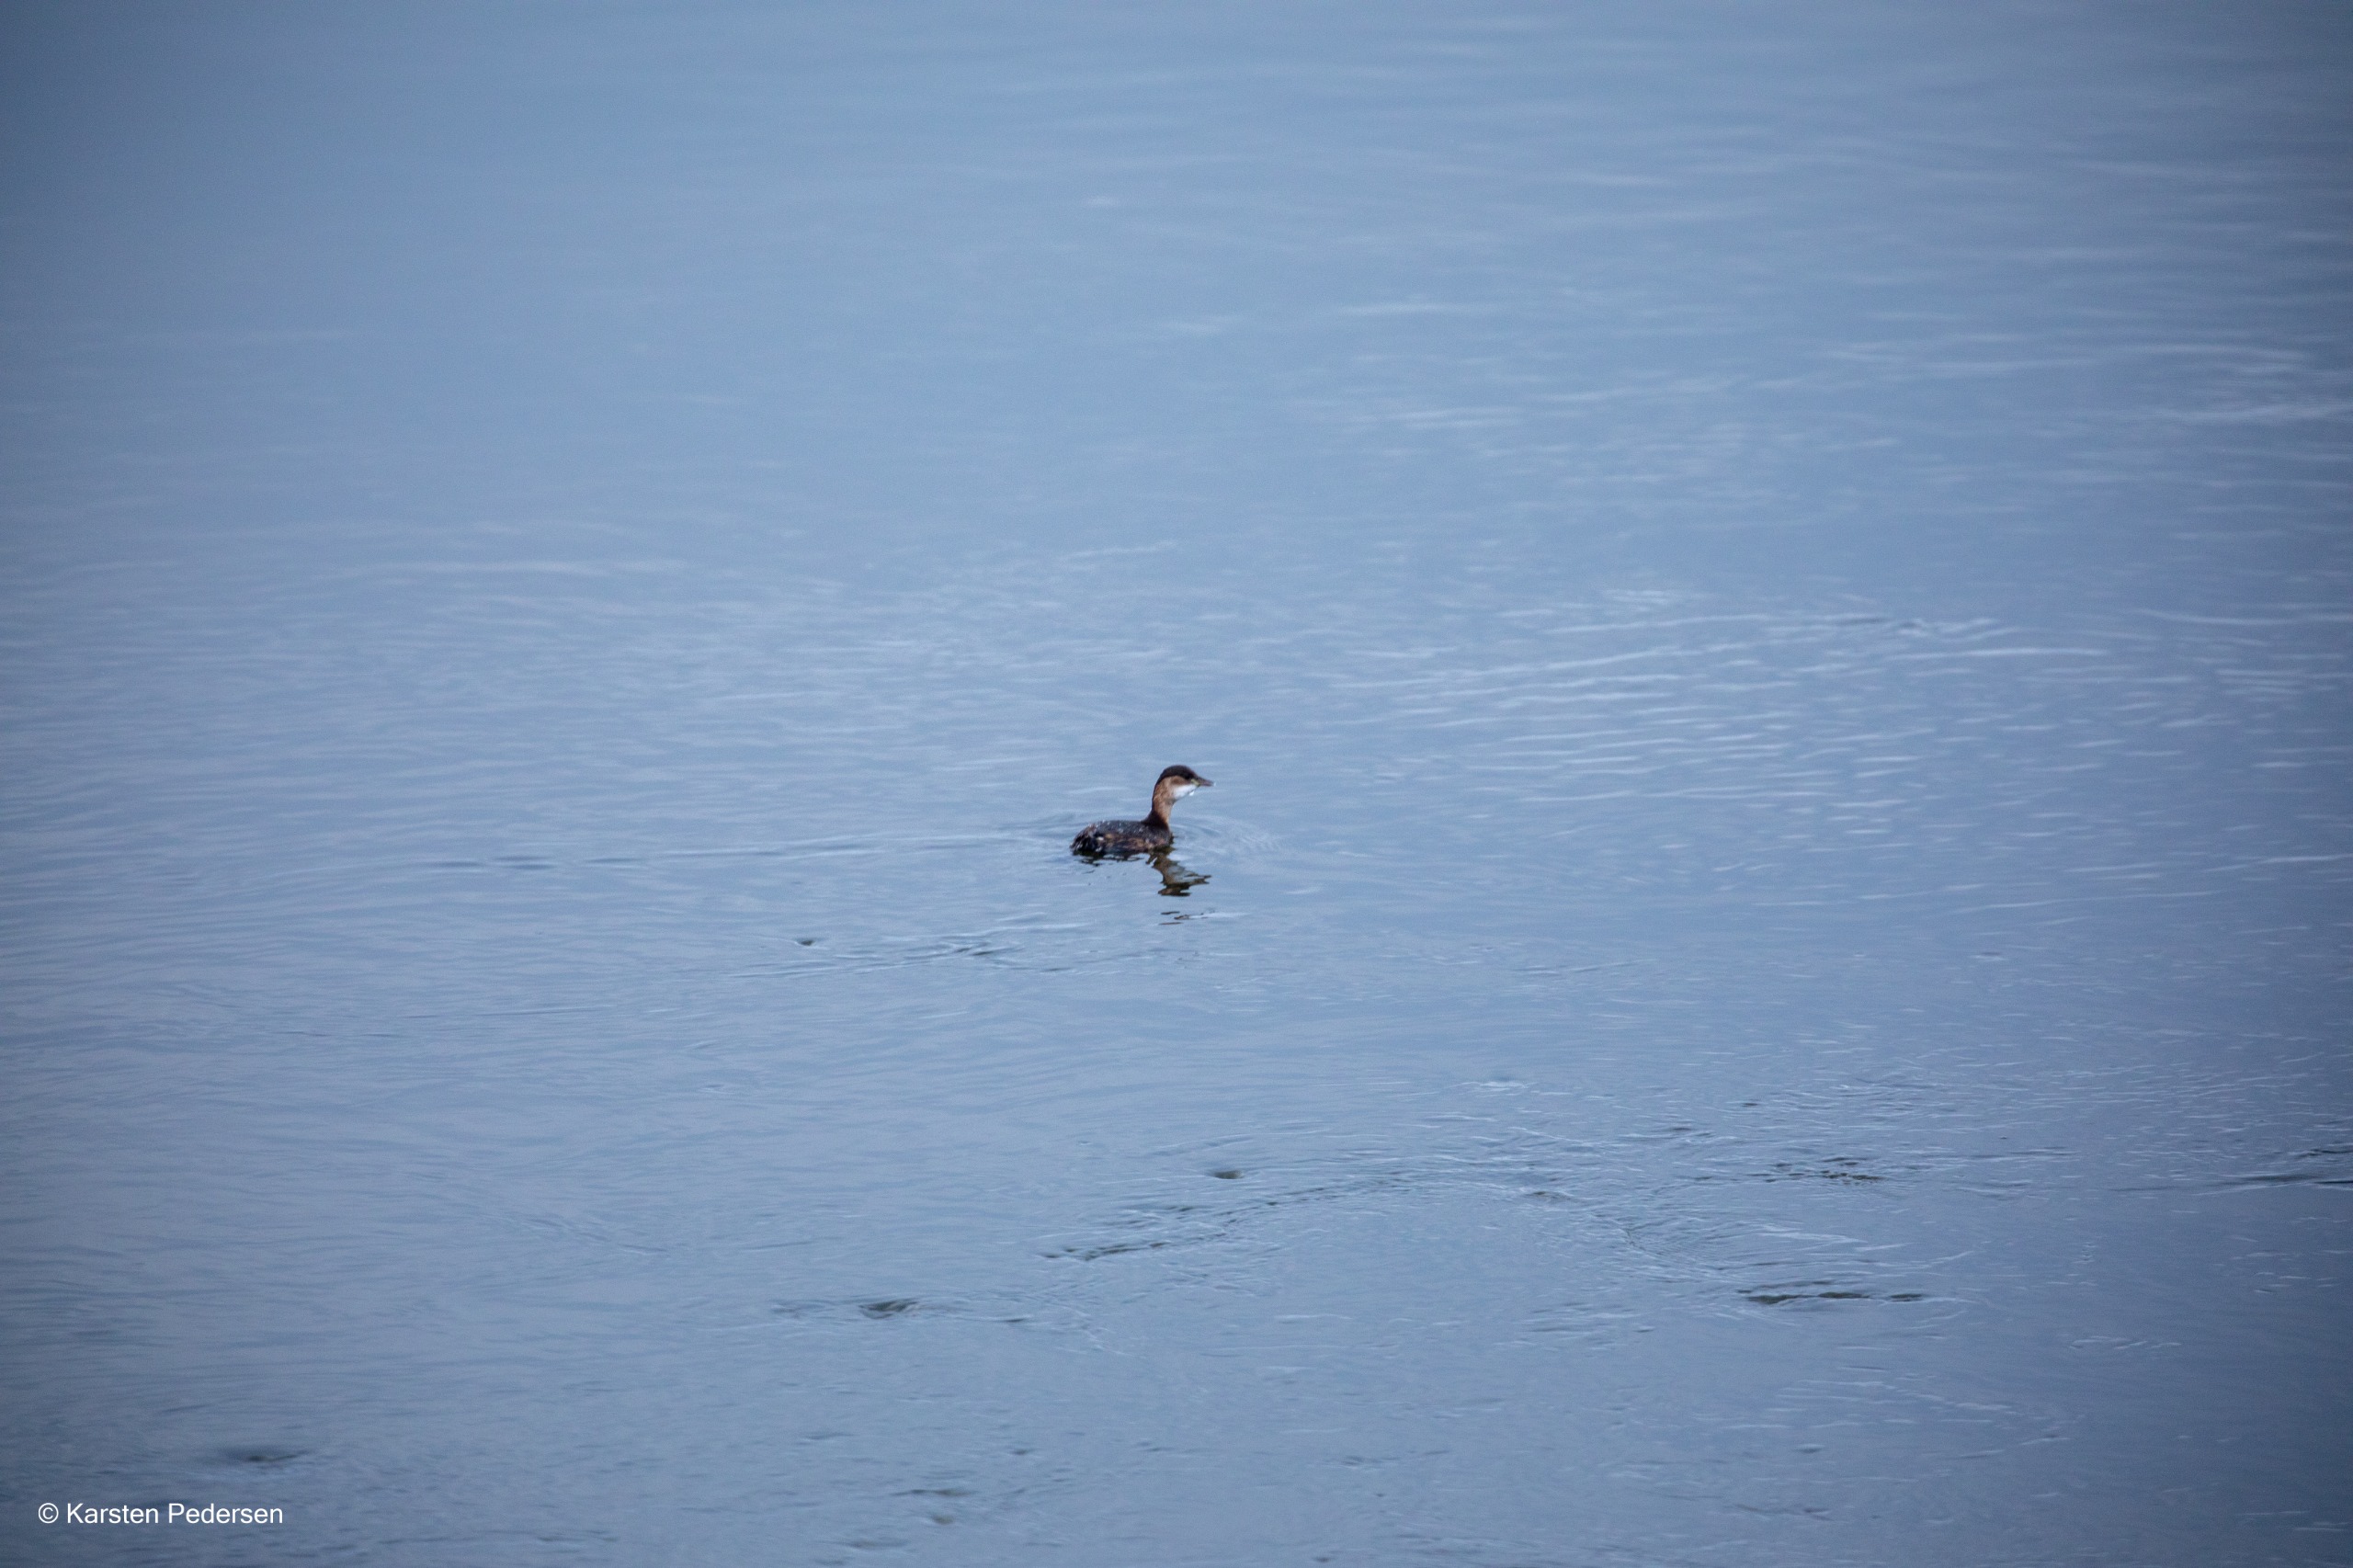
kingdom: Animalia
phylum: Chordata
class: Aves
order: Podicipediformes
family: Podicipedidae
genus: Tachybaptus
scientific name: Tachybaptus ruficollis
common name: Lille lappedykker
